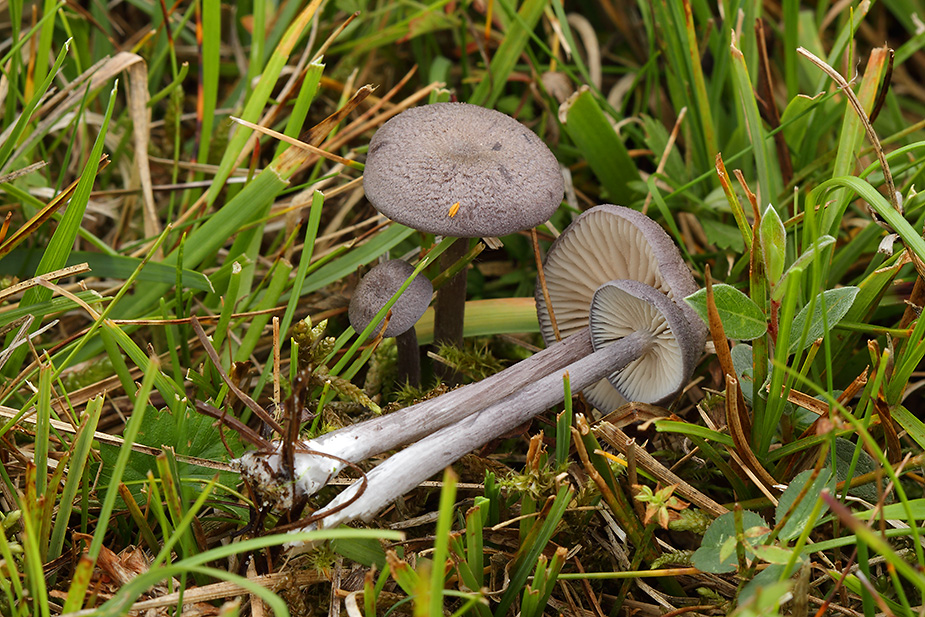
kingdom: Fungi
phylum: Basidiomycota
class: Agaricomycetes
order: Agaricales
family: Entolomataceae
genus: Entoloma
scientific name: Entoloma mougeotii
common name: violetgrå rødblad
